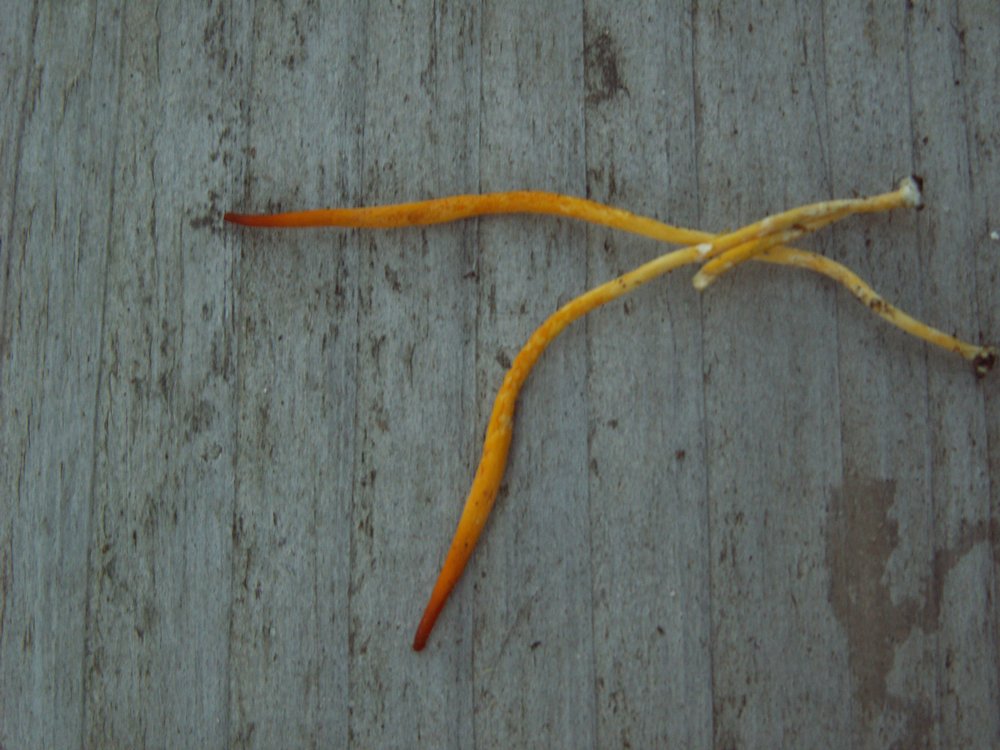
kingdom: Fungi
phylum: Basidiomycota
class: Agaricomycetes
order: Agaricales
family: Clavariaceae
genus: Clavulinopsis
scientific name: Clavulinopsis laeticolor
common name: flamme-køllesvamp
